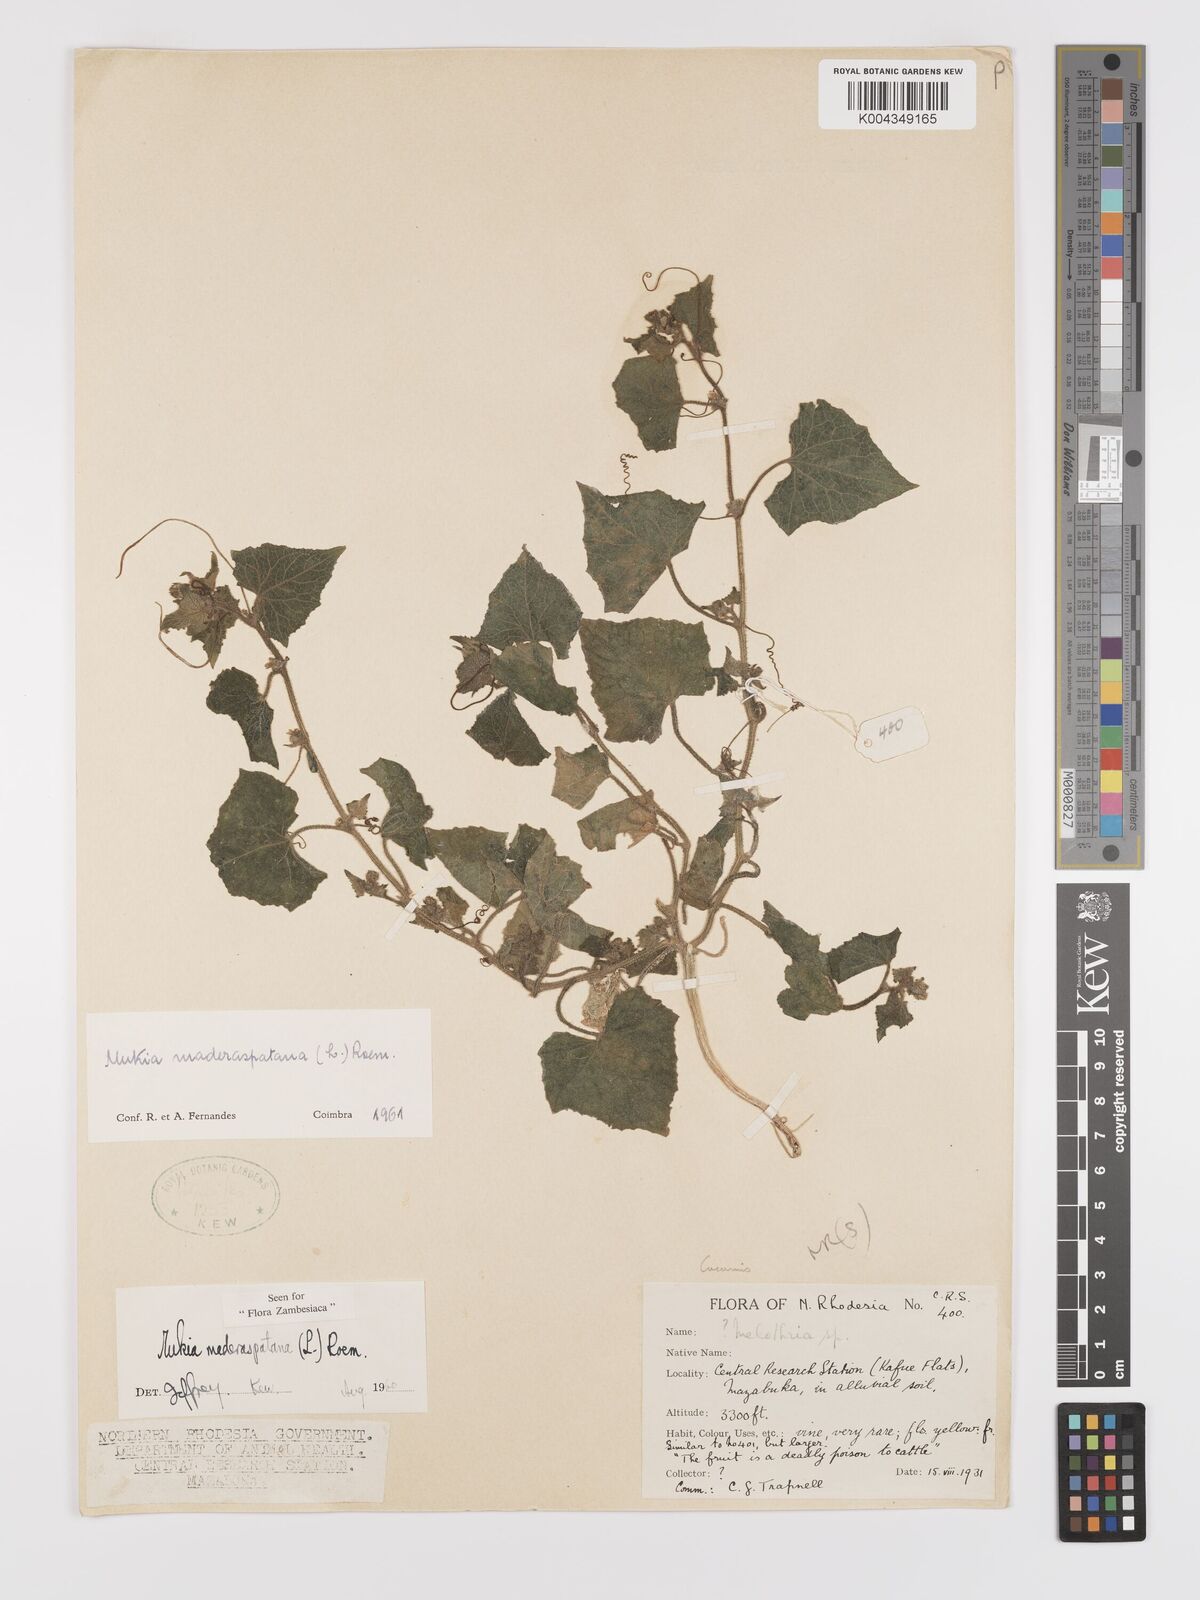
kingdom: Plantae
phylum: Tracheophyta
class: Magnoliopsida
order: Cucurbitales
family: Cucurbitaceae
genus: Cucumis
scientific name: Cucumis maderaspatanus
